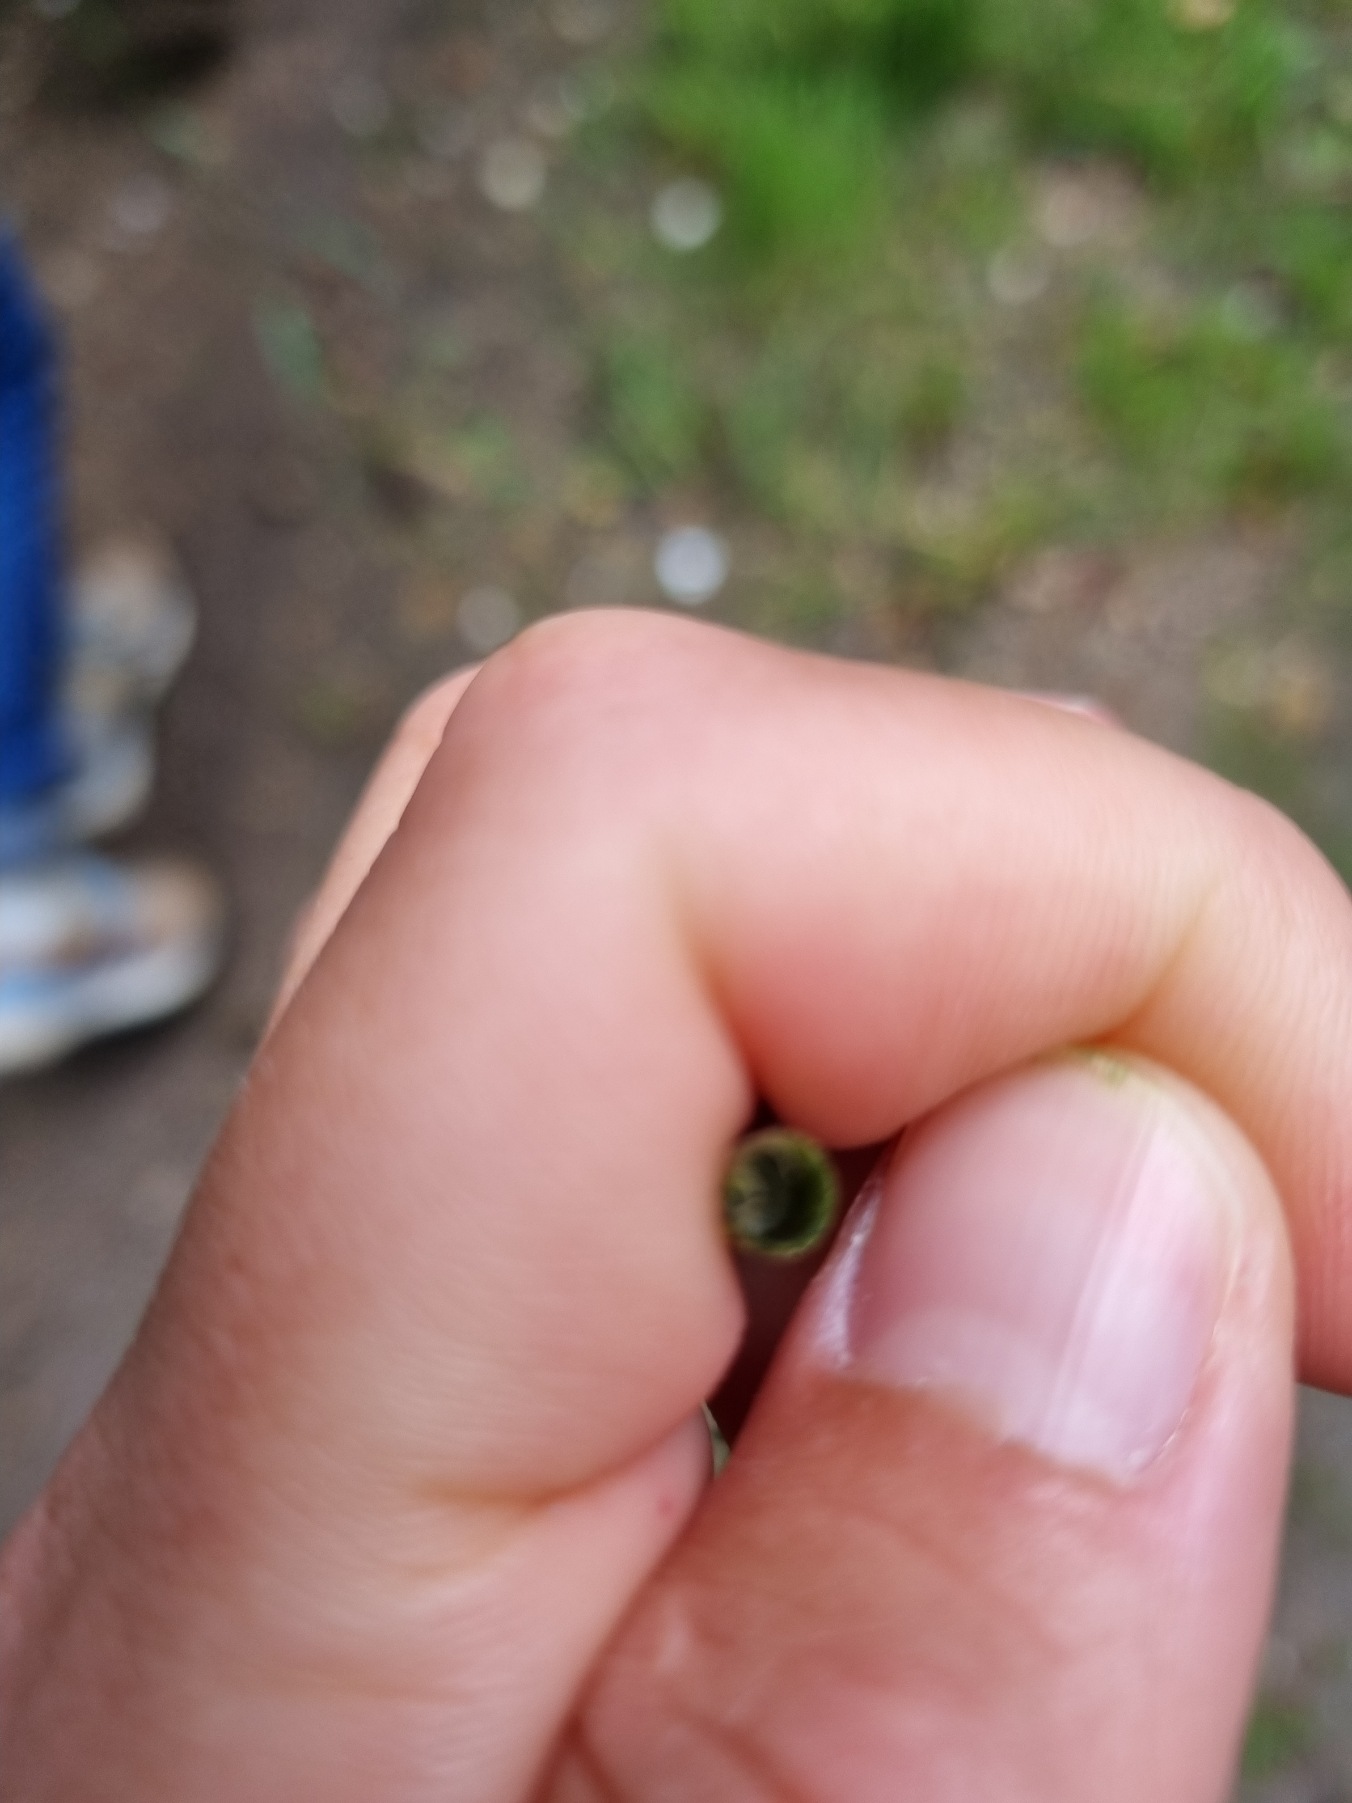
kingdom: Plantae
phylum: Tracheophyta
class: Polypodiopsida
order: Equisetales
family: Equisetaceae
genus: Equisetum
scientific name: Equisetum fluviatile
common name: Dynd-padderok
